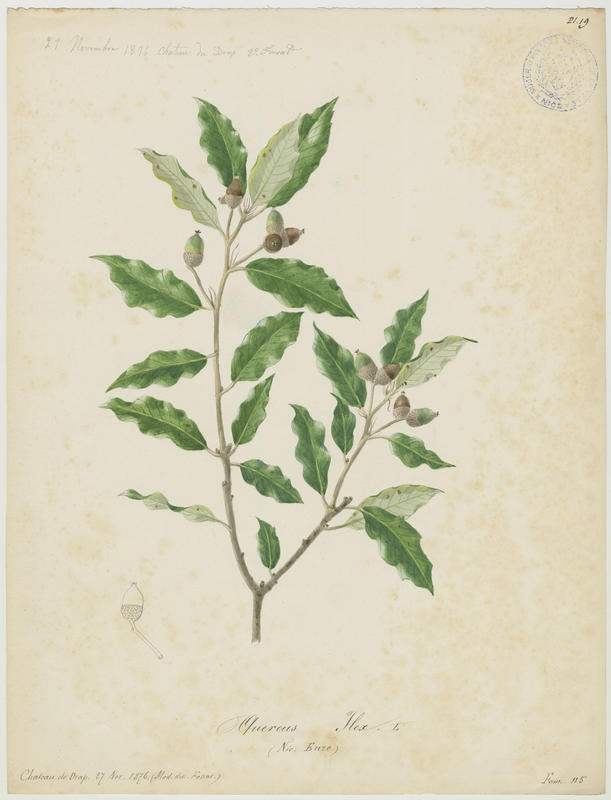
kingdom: Plantae
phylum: Tracheophyta
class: Magnoliopsida
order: Fagales
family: Fagaceae
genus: Quercus
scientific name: Quercus ilex
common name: Evergreen oak
